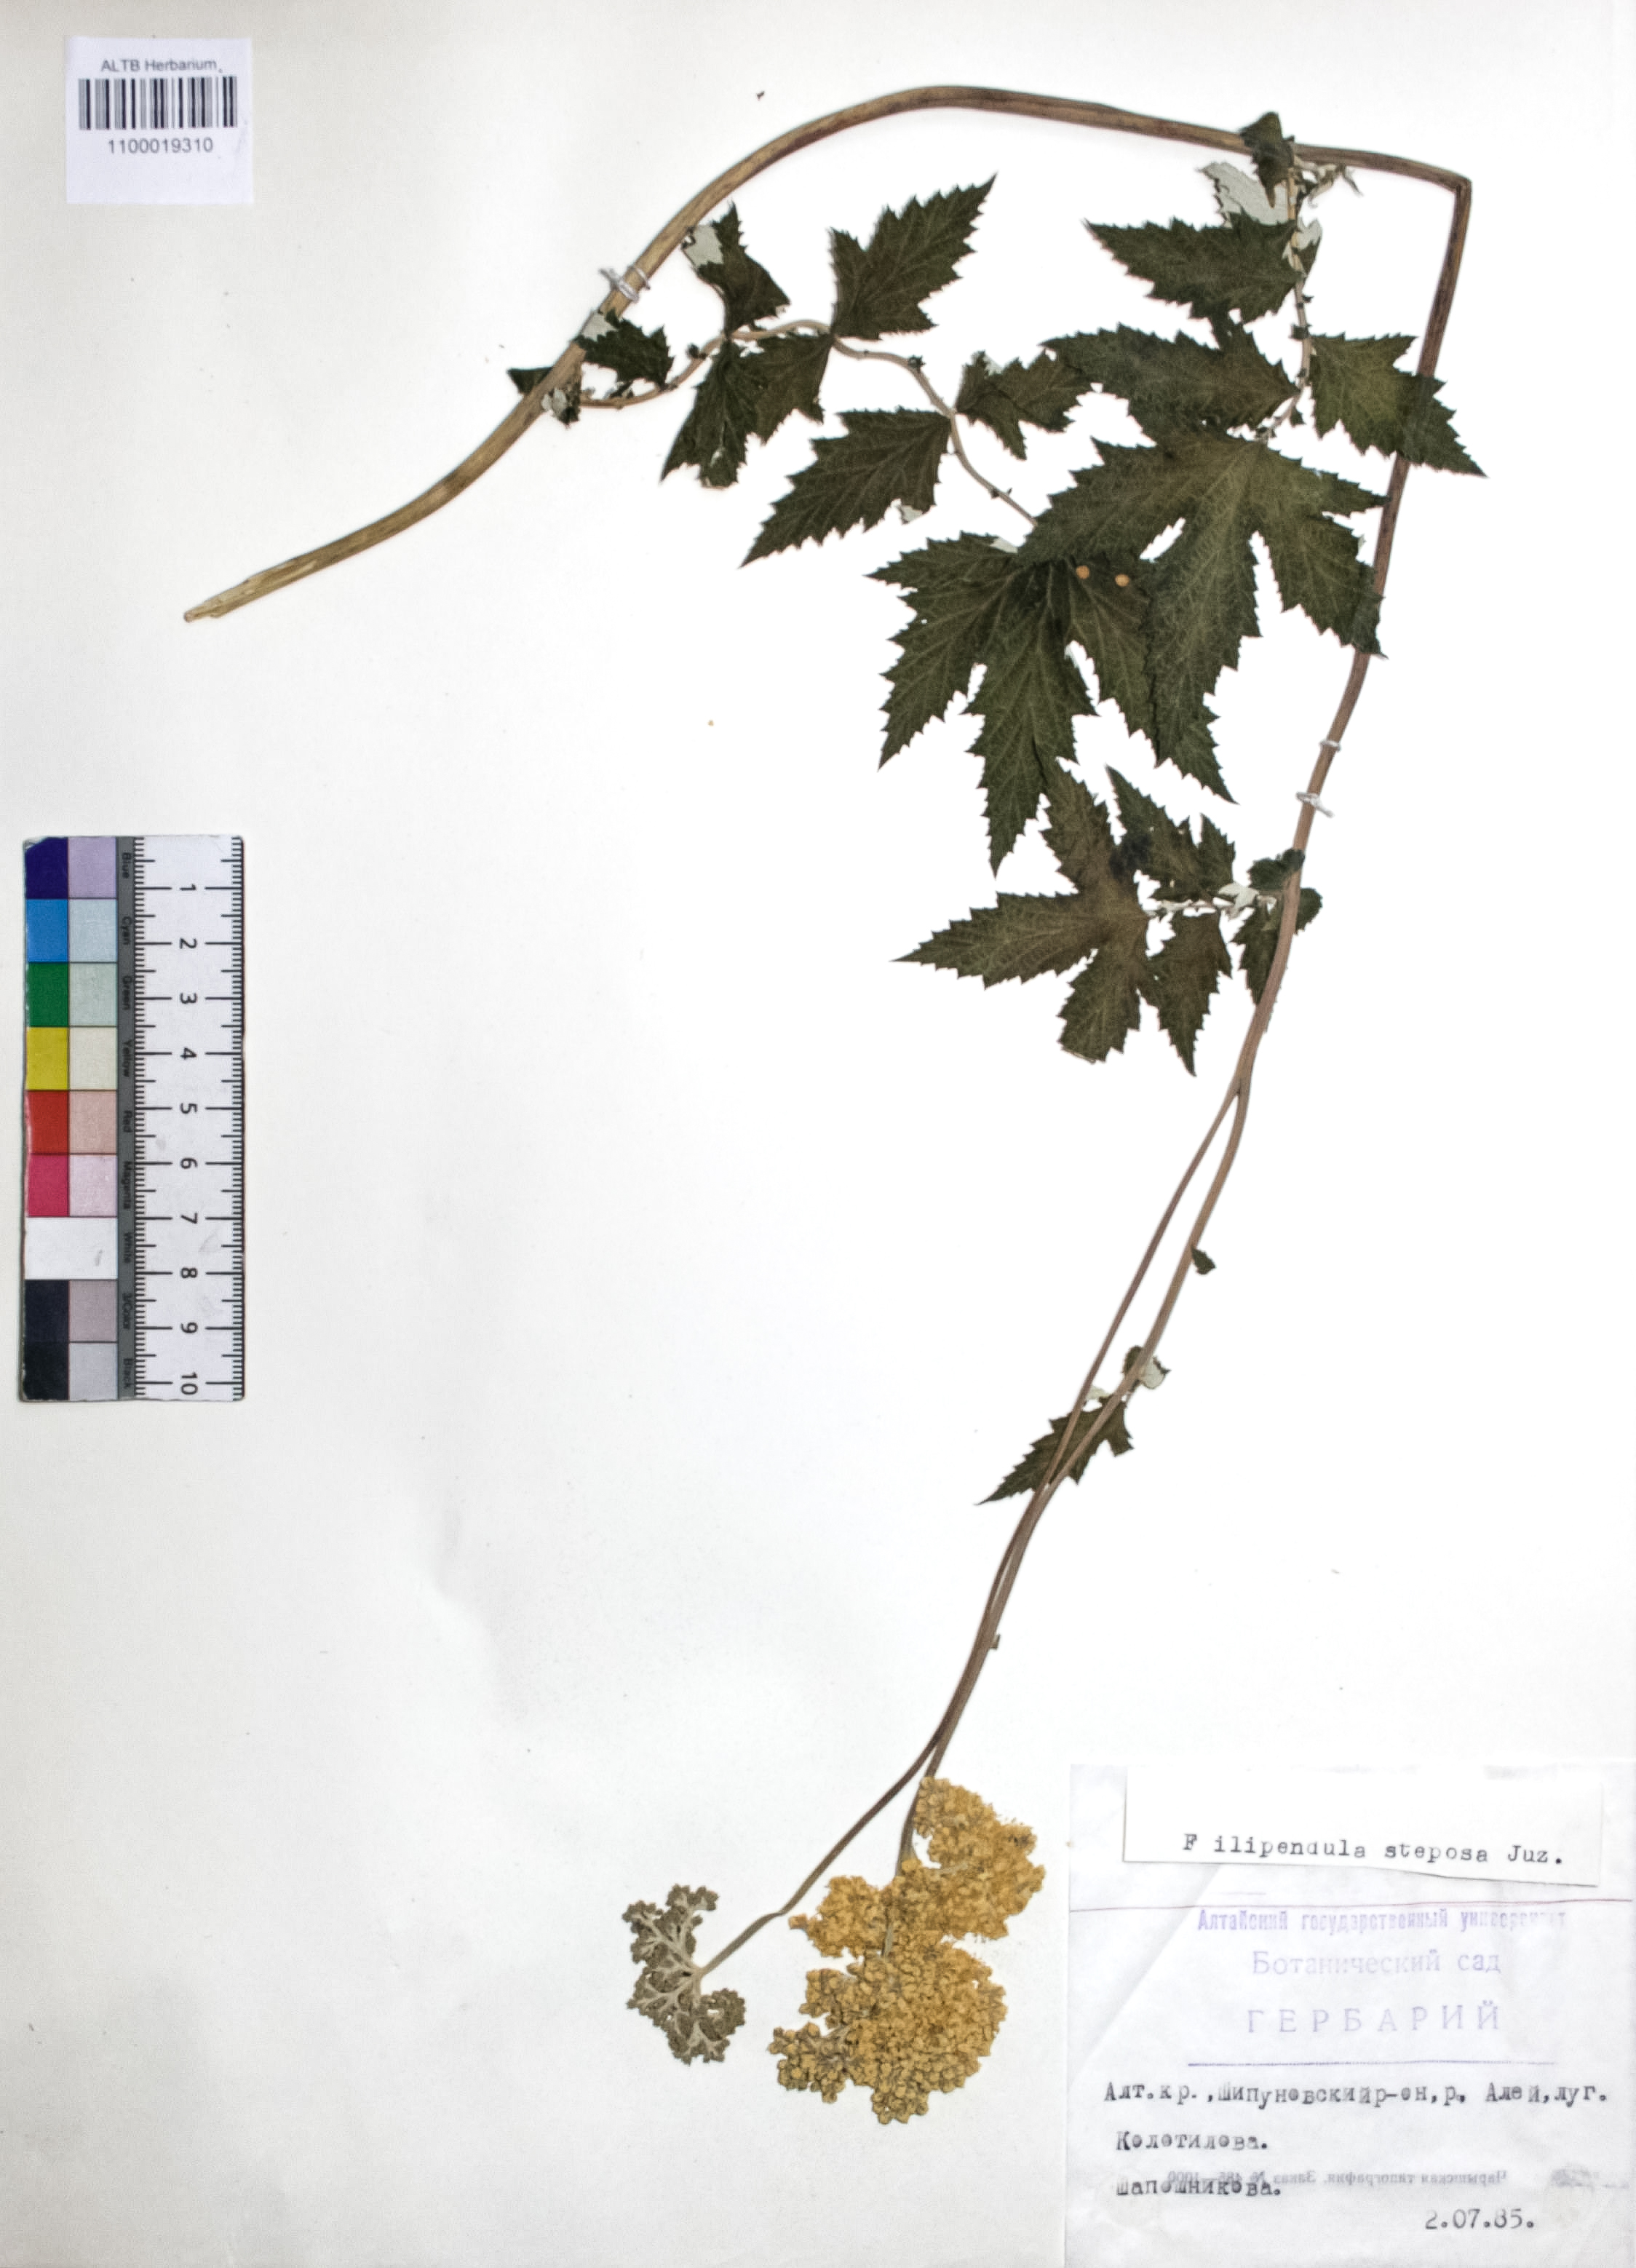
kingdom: Plantae
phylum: Tracheophyta
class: Magnoliopsida
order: Rosales
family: Rosaceae
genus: Filipendula
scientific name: Filipendula ulmaria
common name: Meadowsweet
